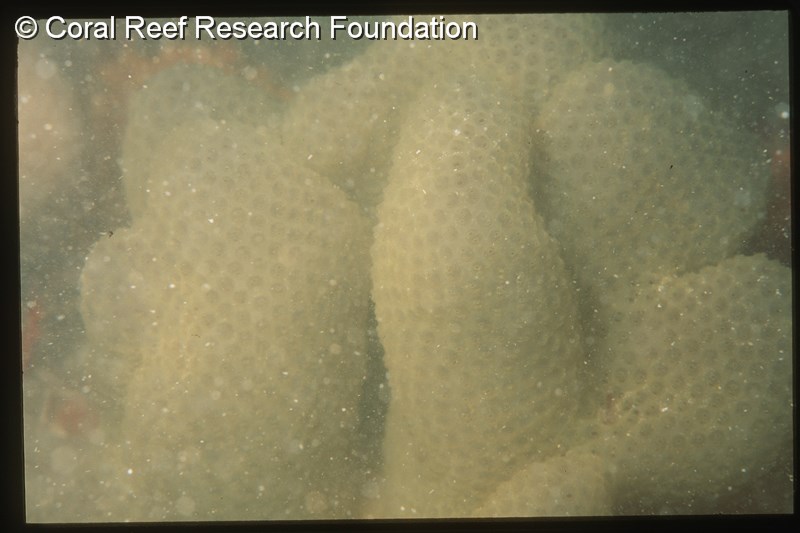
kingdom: Animalia
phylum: Chordata
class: Ascidiacea
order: Aplousobranchia
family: Pseudodistomidae
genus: Pseudodistoma
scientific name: Pseudodistoma
